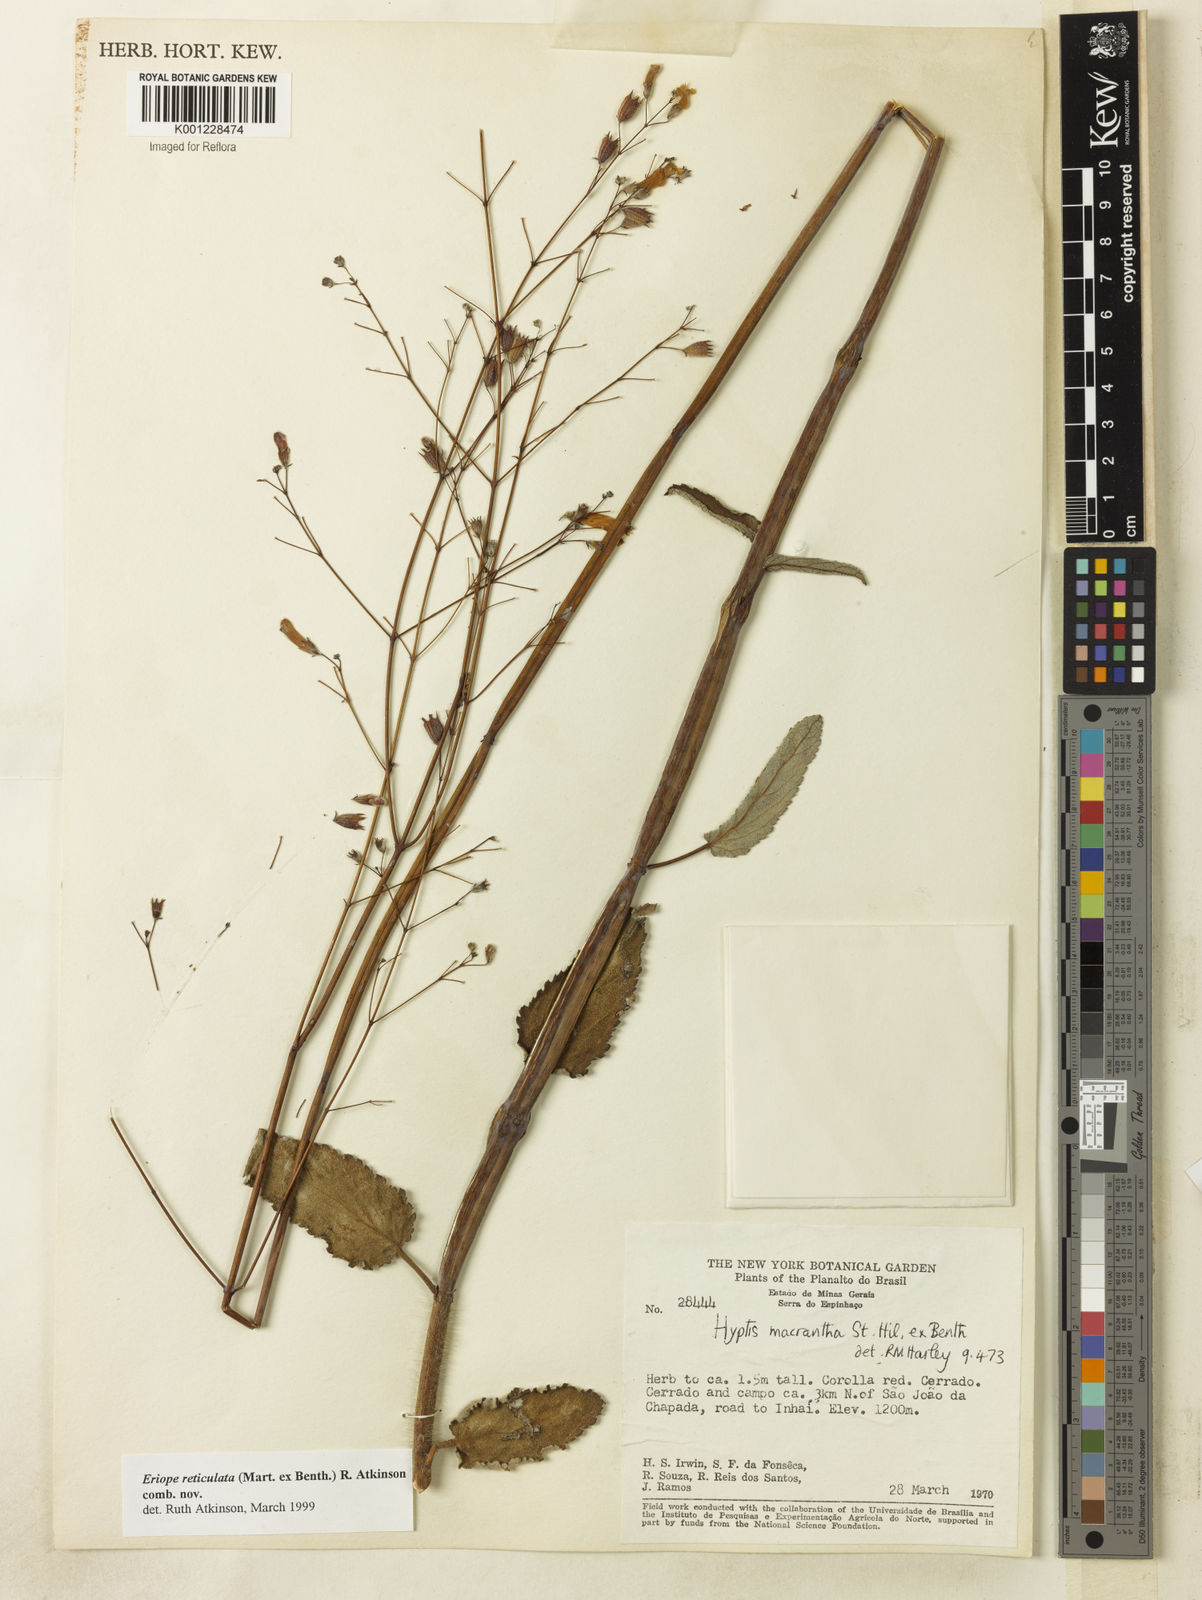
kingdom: Plantae
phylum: Tracheophyta
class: Magnoliopsida
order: Lamiales
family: Lamiaceae
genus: Hypenia
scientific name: Hypenia reticulata
